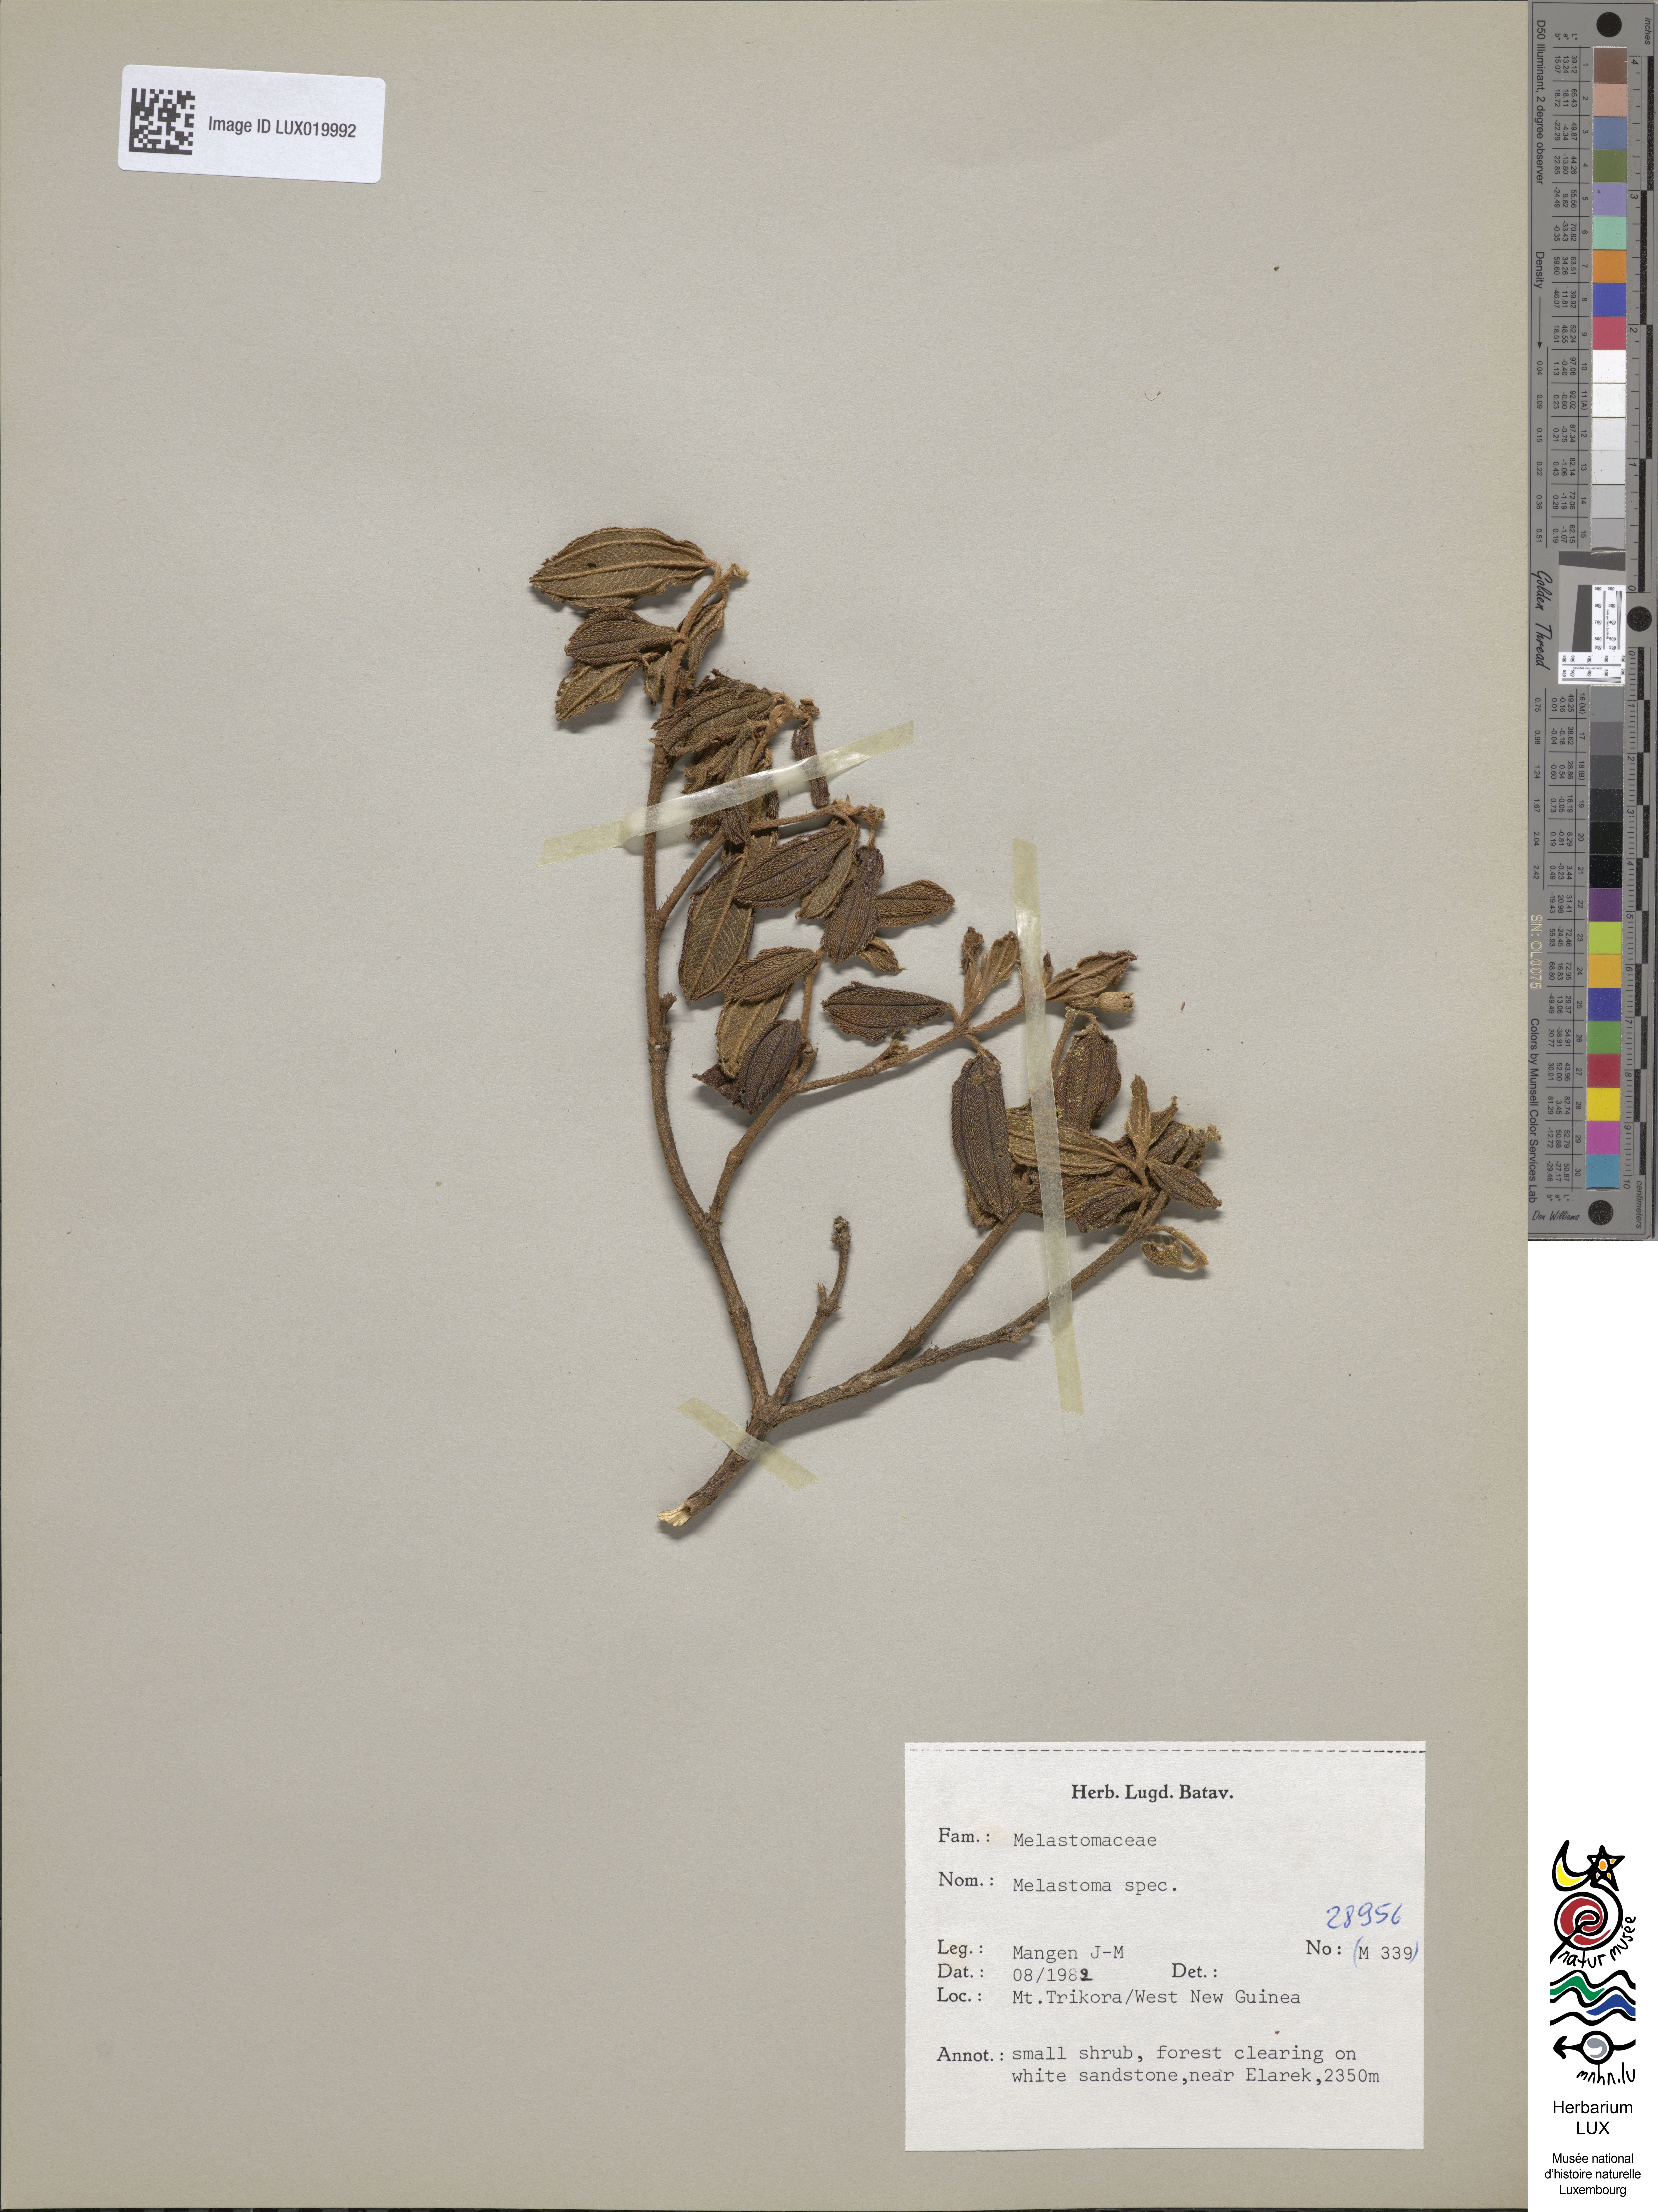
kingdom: Plantae
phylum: Tracheophyta
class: Magnoliopsida
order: Myrtales
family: Melastomataceae
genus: Melastoma
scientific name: Melastoma
